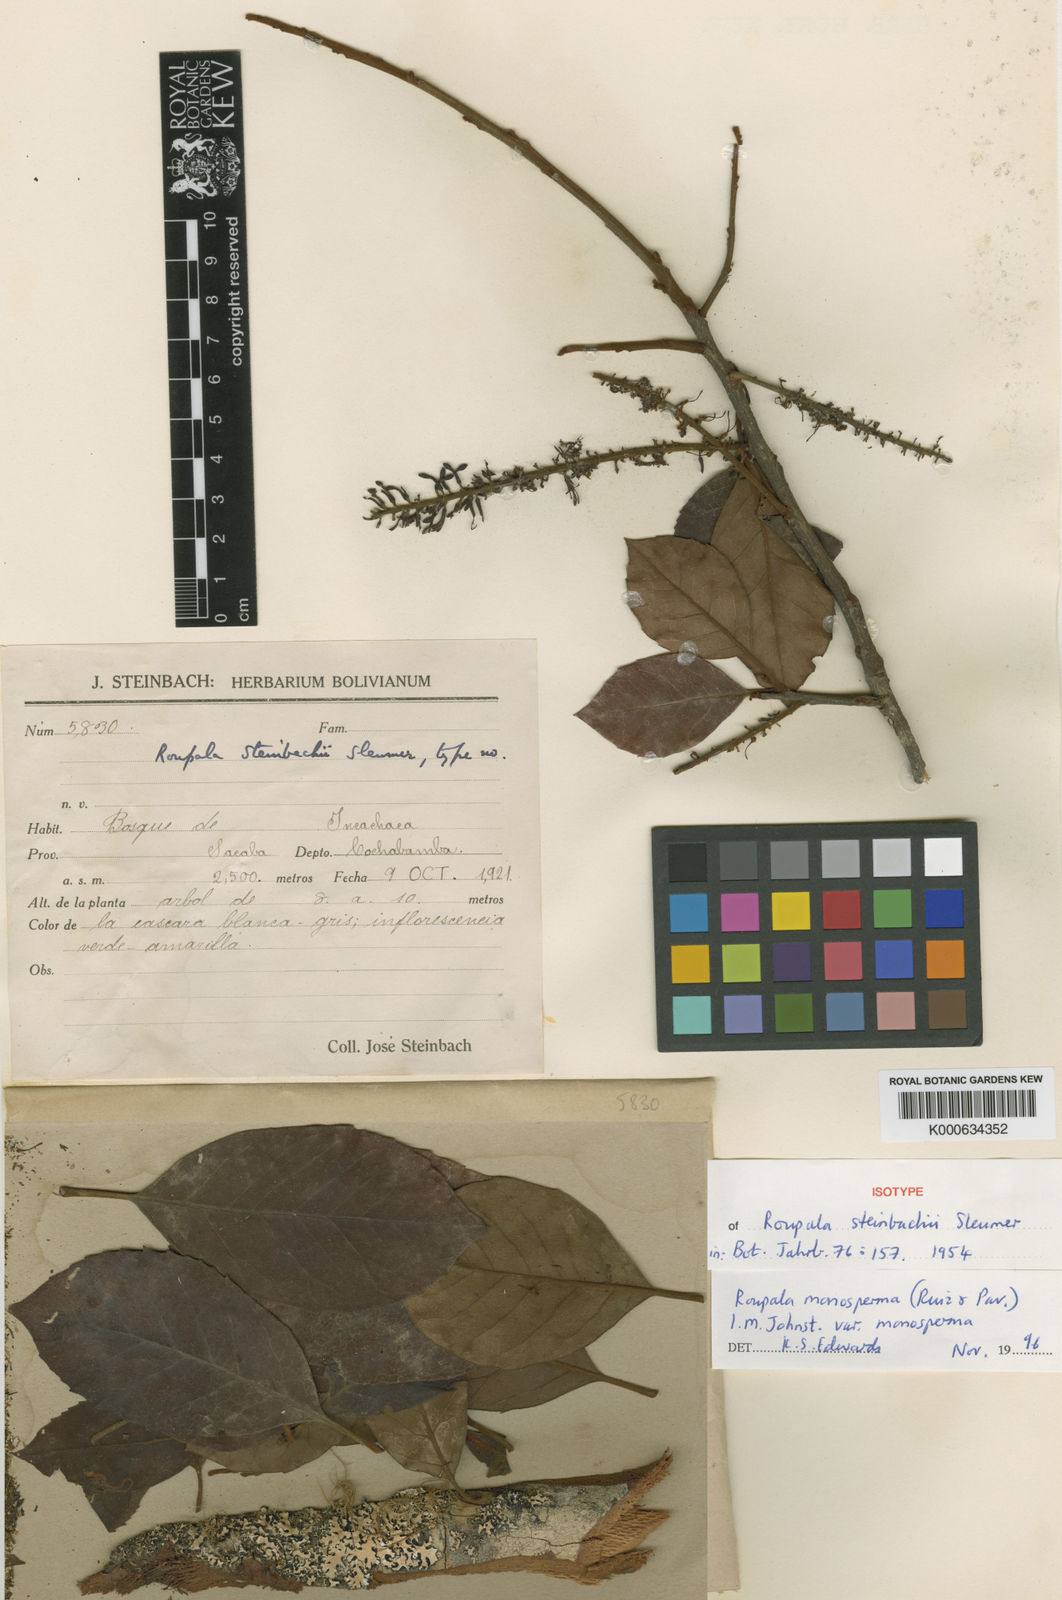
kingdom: Plantae
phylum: Tracheophyta
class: Magnoliopsida
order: Proteales
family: Proteaceae
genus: Roupala
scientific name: Roupala monosperma
